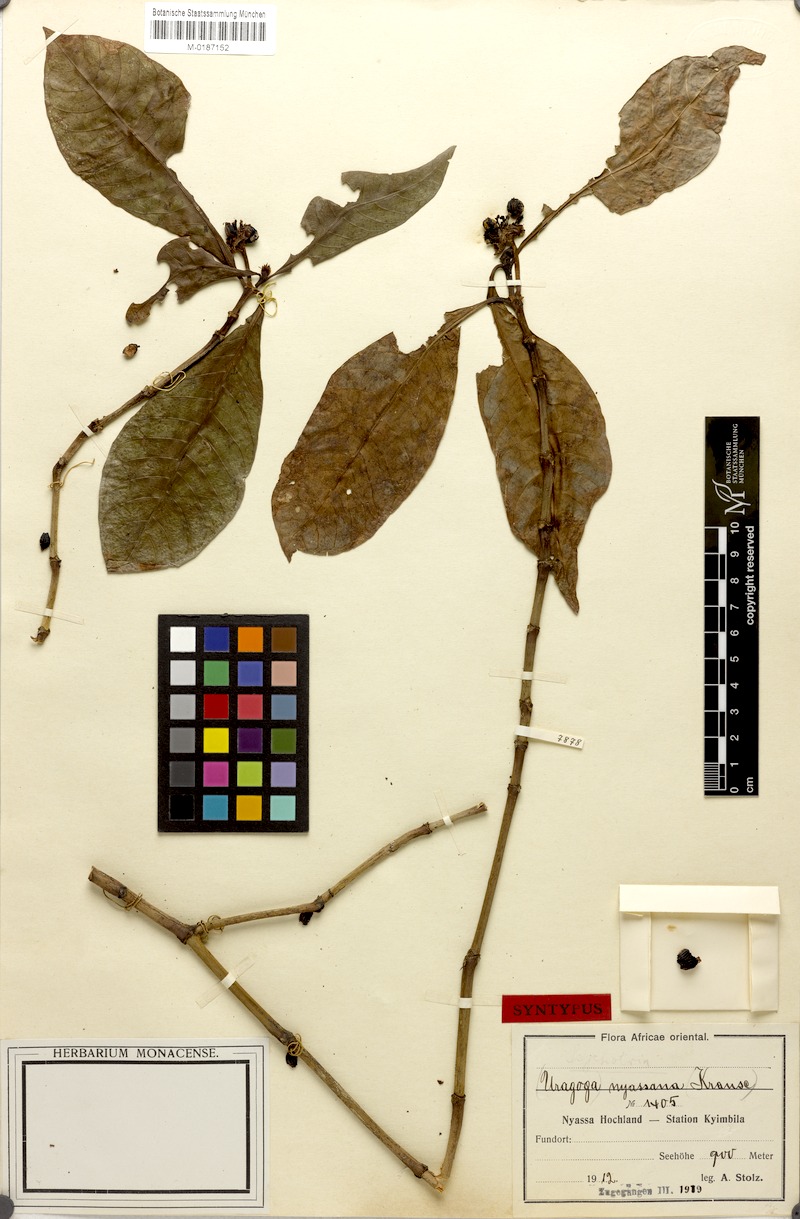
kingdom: Plantae
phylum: Tracheophyta
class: Magnoliopsida
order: Gentianales
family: Rubiaceae
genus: Psychotria
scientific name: Psychotria peduncularis
